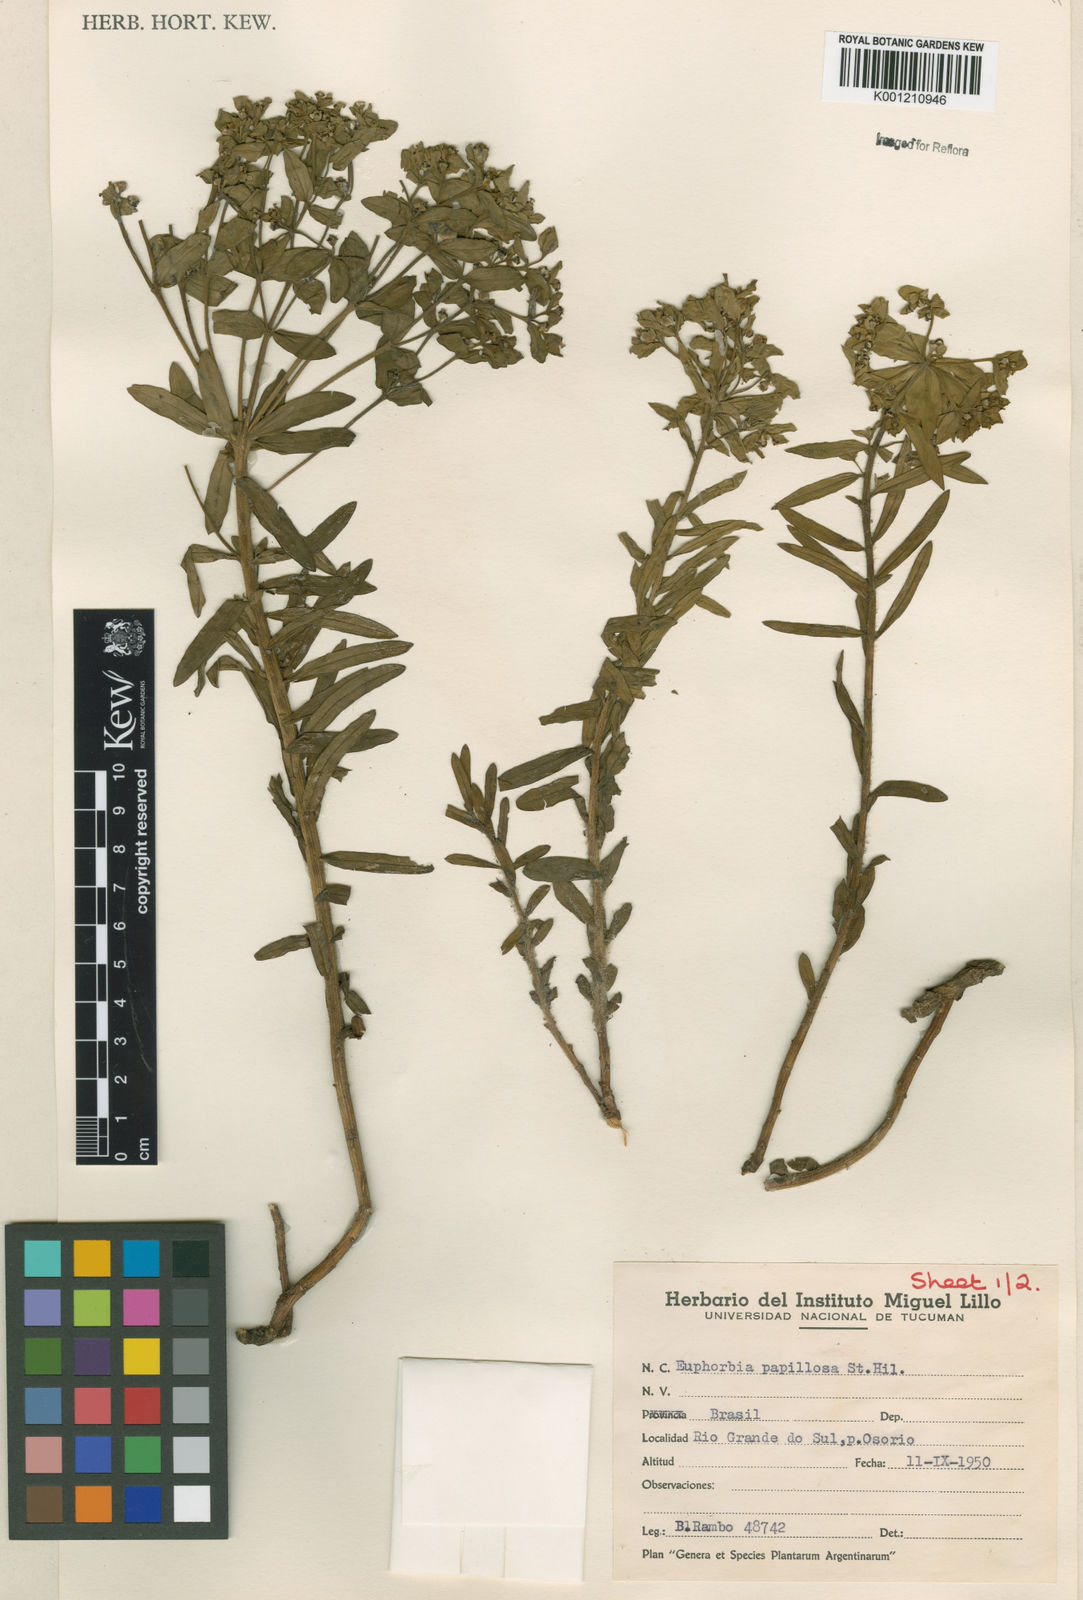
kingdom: Plantae
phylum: Tracheophyta
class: Magnoliopsida
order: Malpighiales
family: Euphorbiaceae
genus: Euphorbia
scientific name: Euphorbia papillosa
